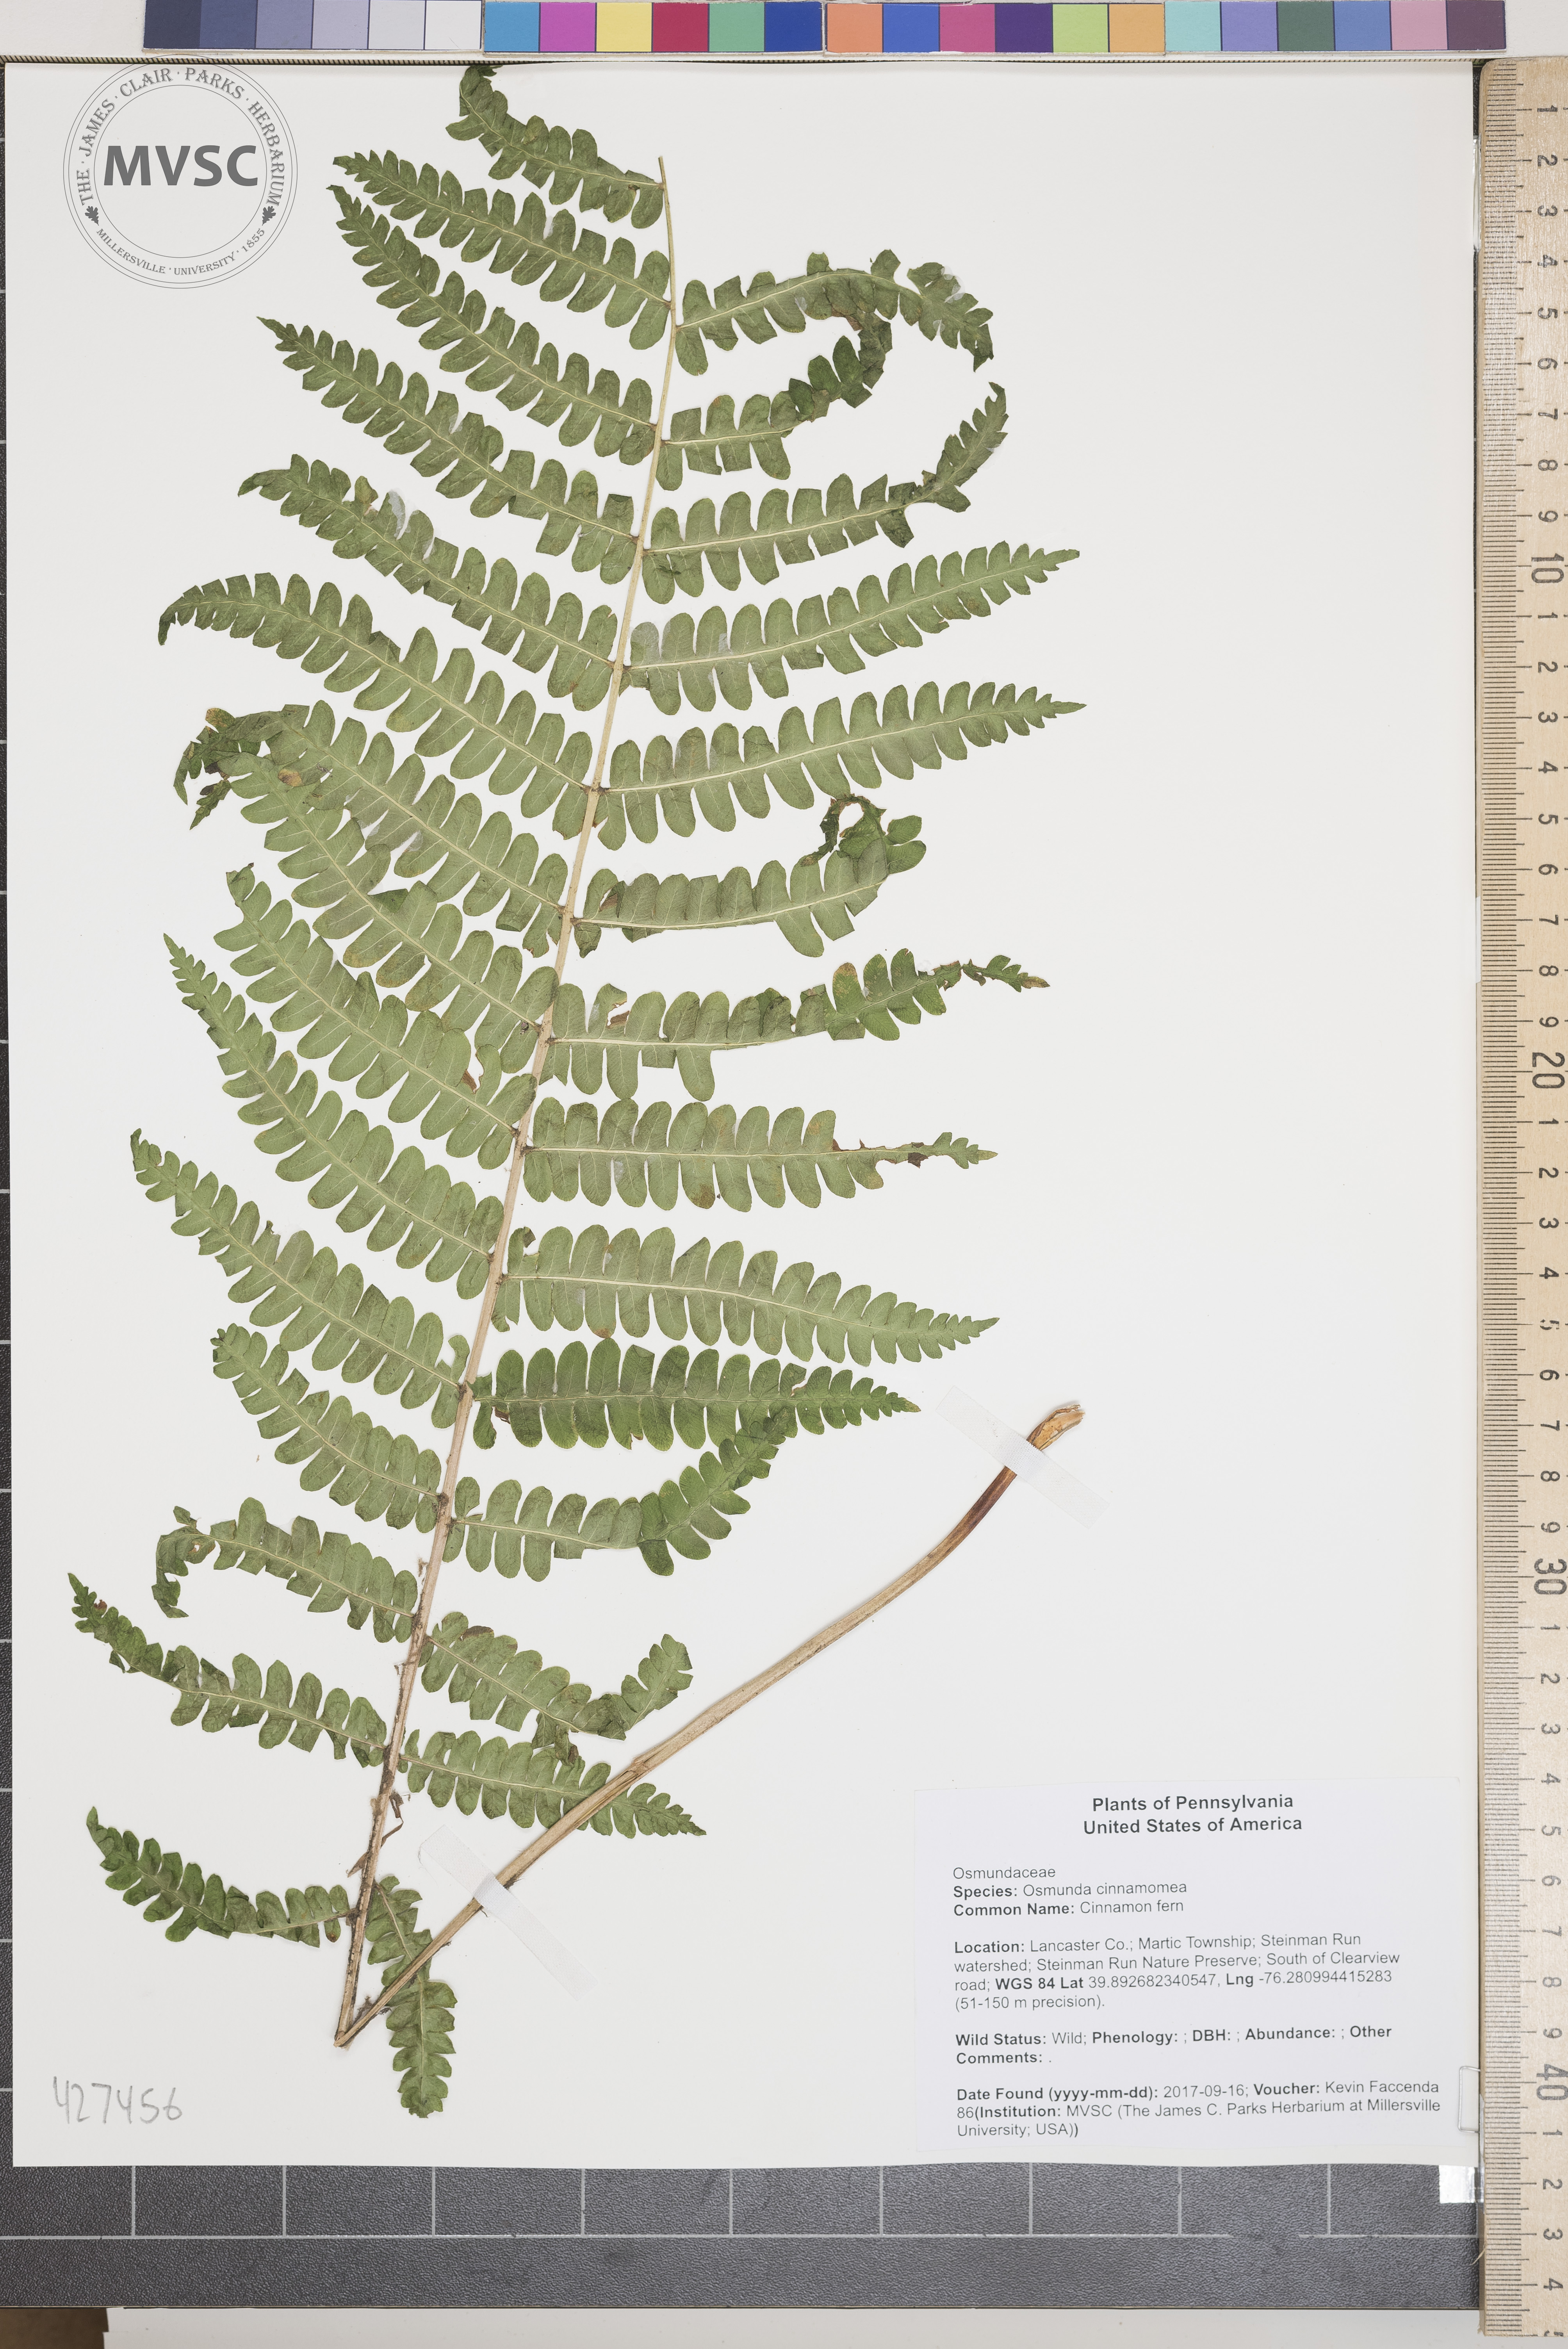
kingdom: Plantae
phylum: Tracheophyta
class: Polypodiopsida
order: Osmundales
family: Osmundaceae
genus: Osmundastrum
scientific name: Osmundastrum cinnamomeum
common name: Cinnamon fern
